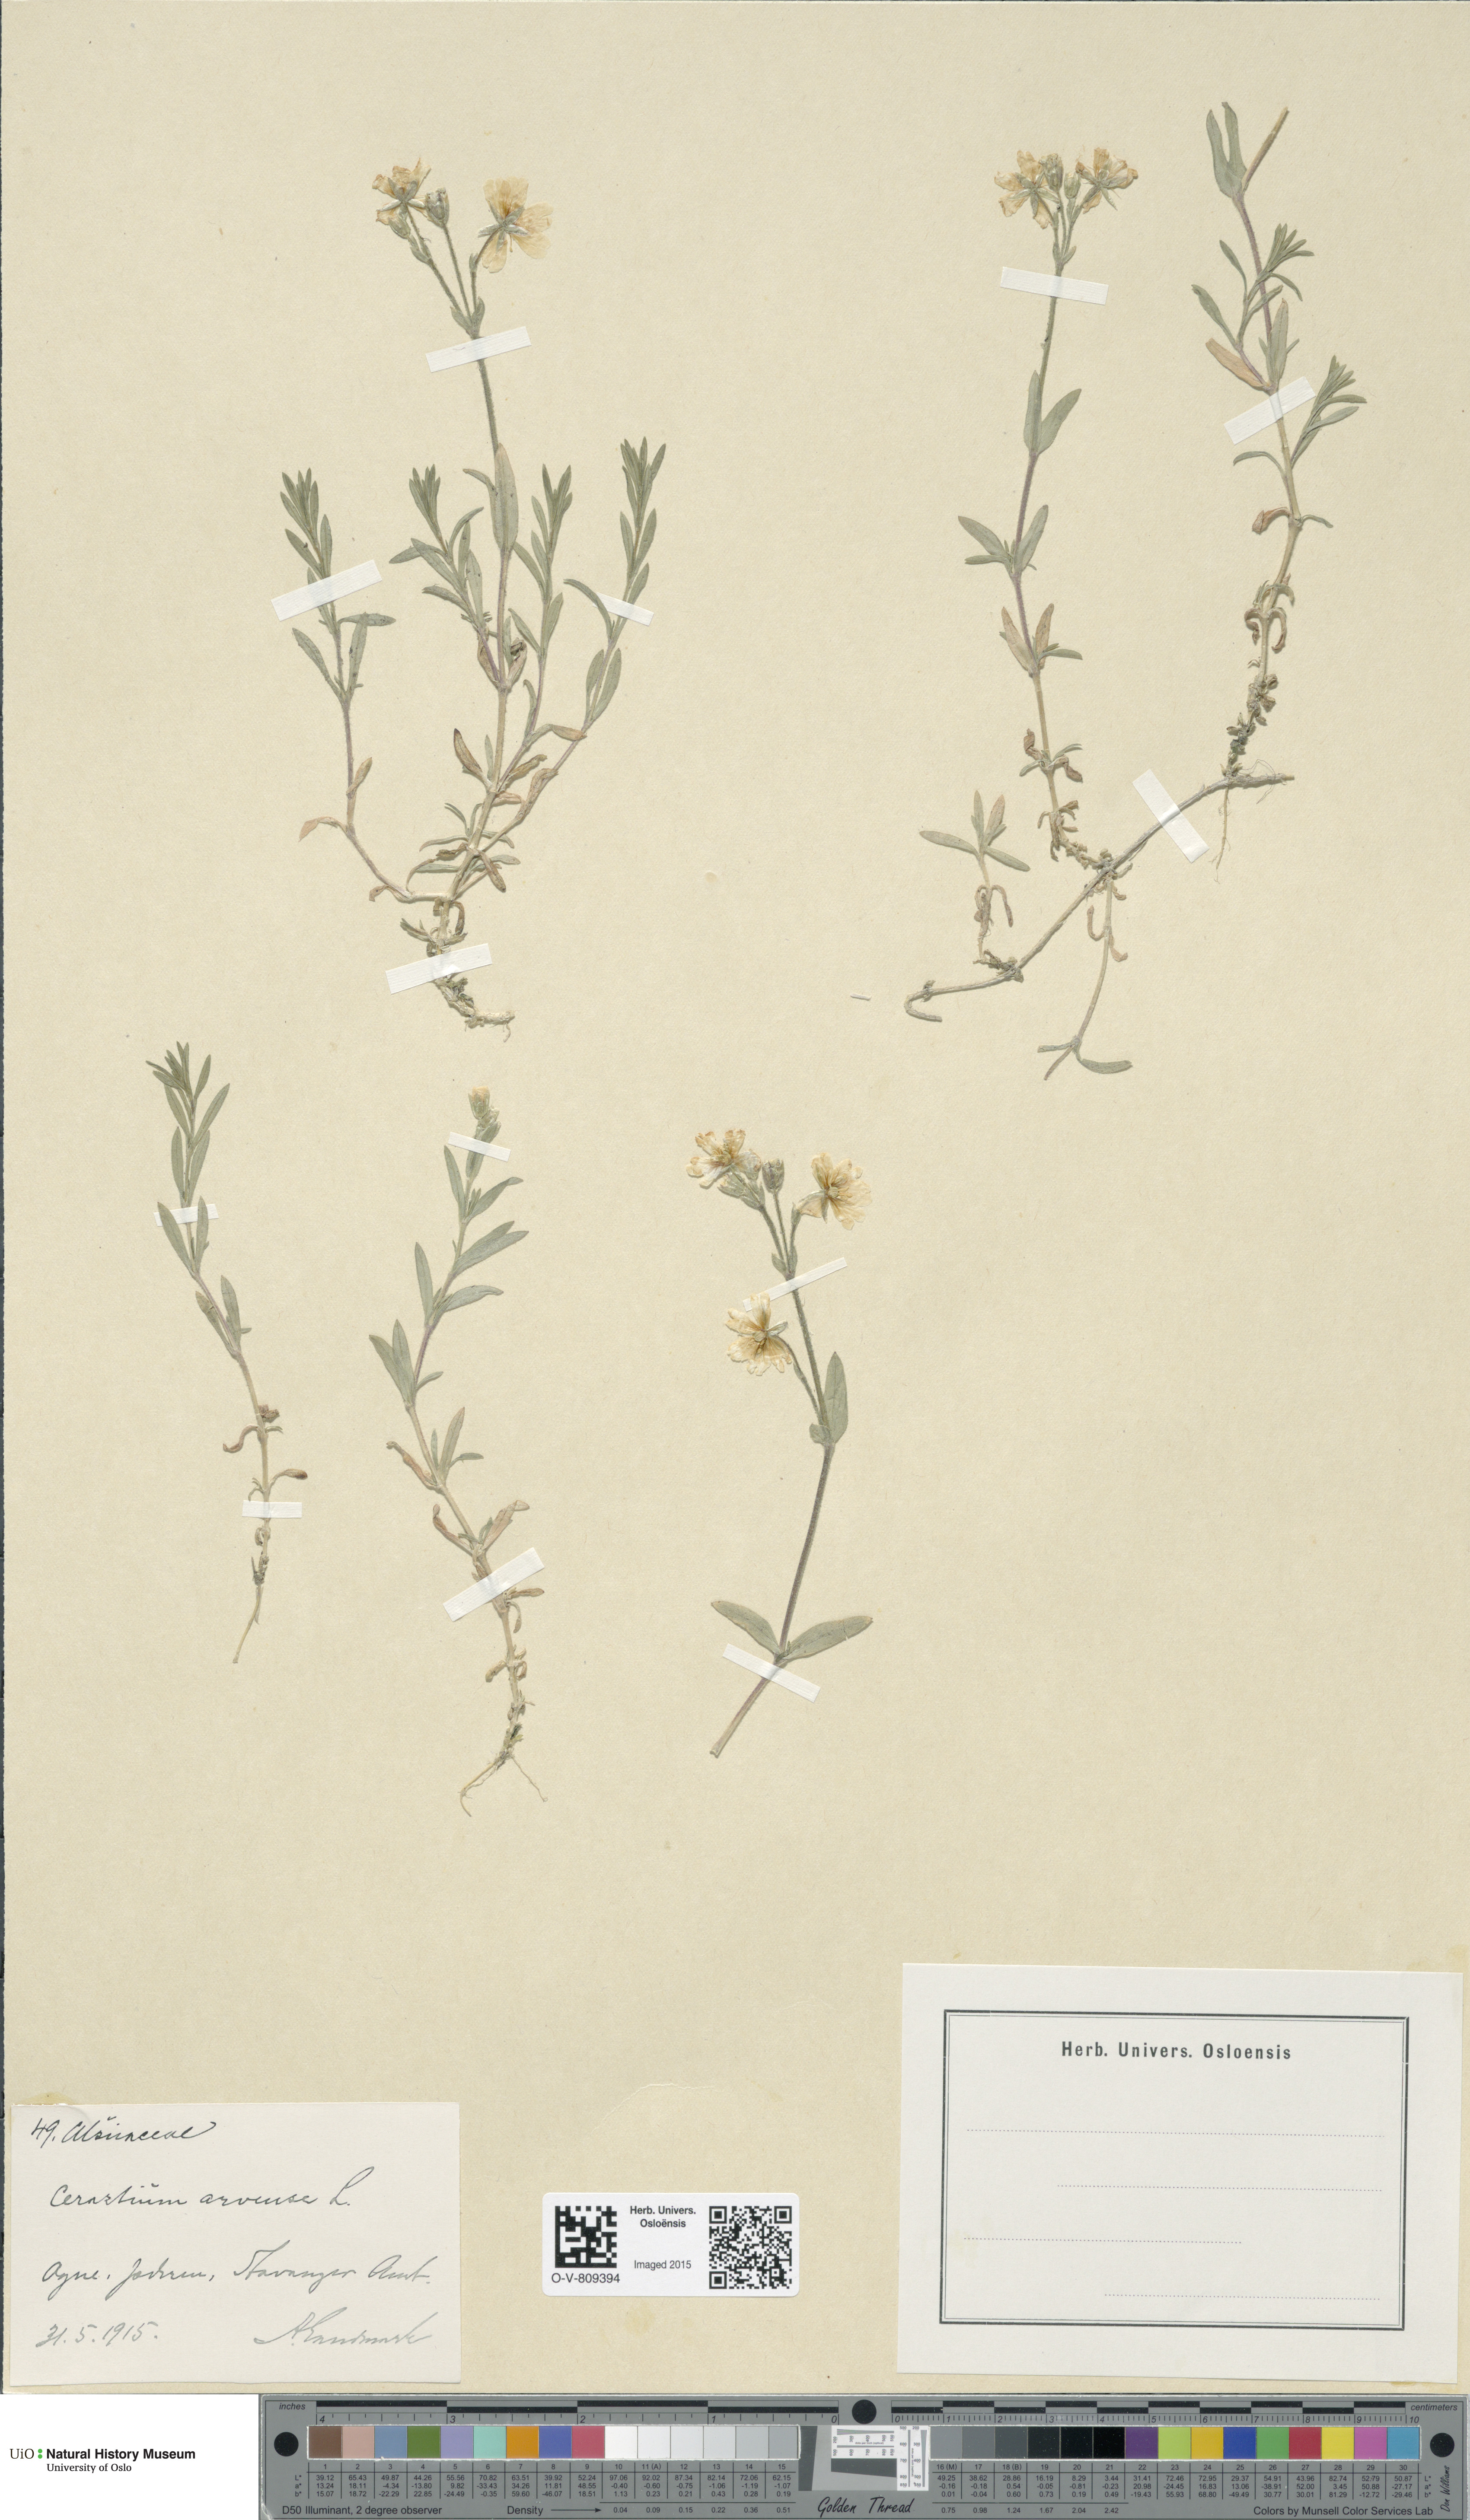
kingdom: Plantae
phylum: Tracheophyta
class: Magnoliopsida
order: Caryophyllales
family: Caryophyllaceae
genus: Cerastium
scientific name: Cerastium arvense
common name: Field mouse-ear
